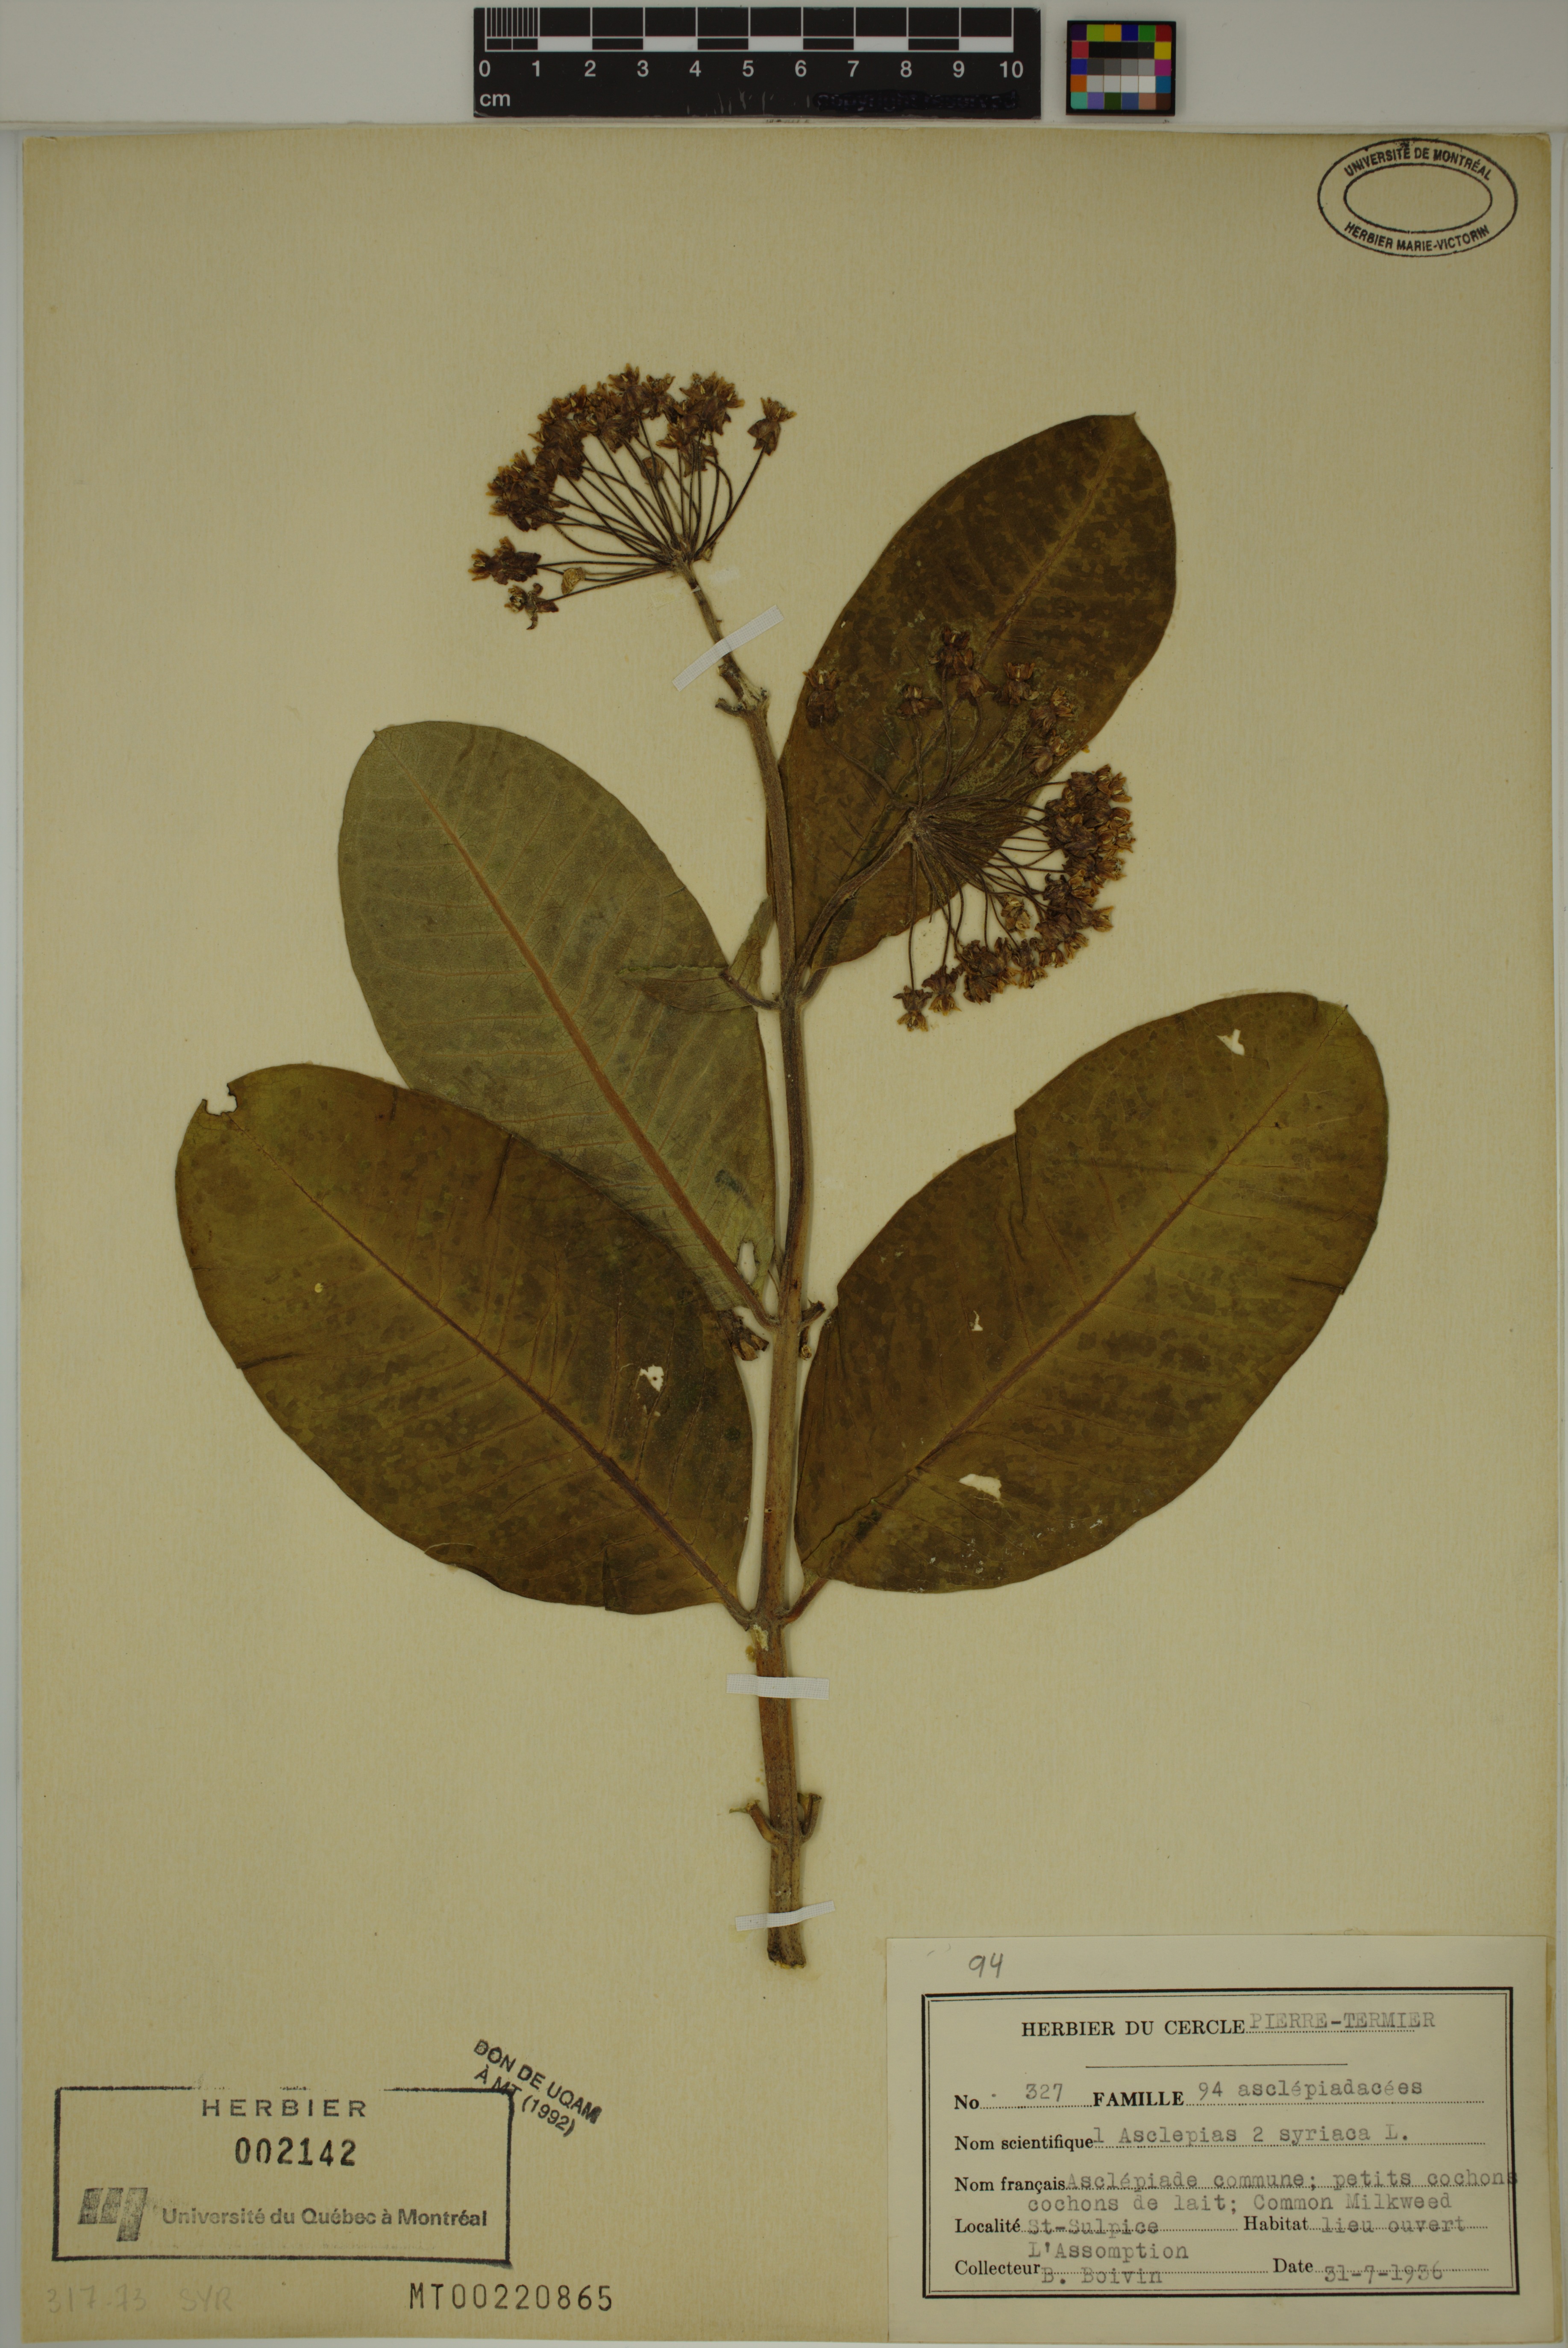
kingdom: Plantae
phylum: Tracheophyta
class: Magnoliopsida
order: Gentianales
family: Apocynaceae
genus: Asclepias
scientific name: Asclepias syriaca
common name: Common milkweed
